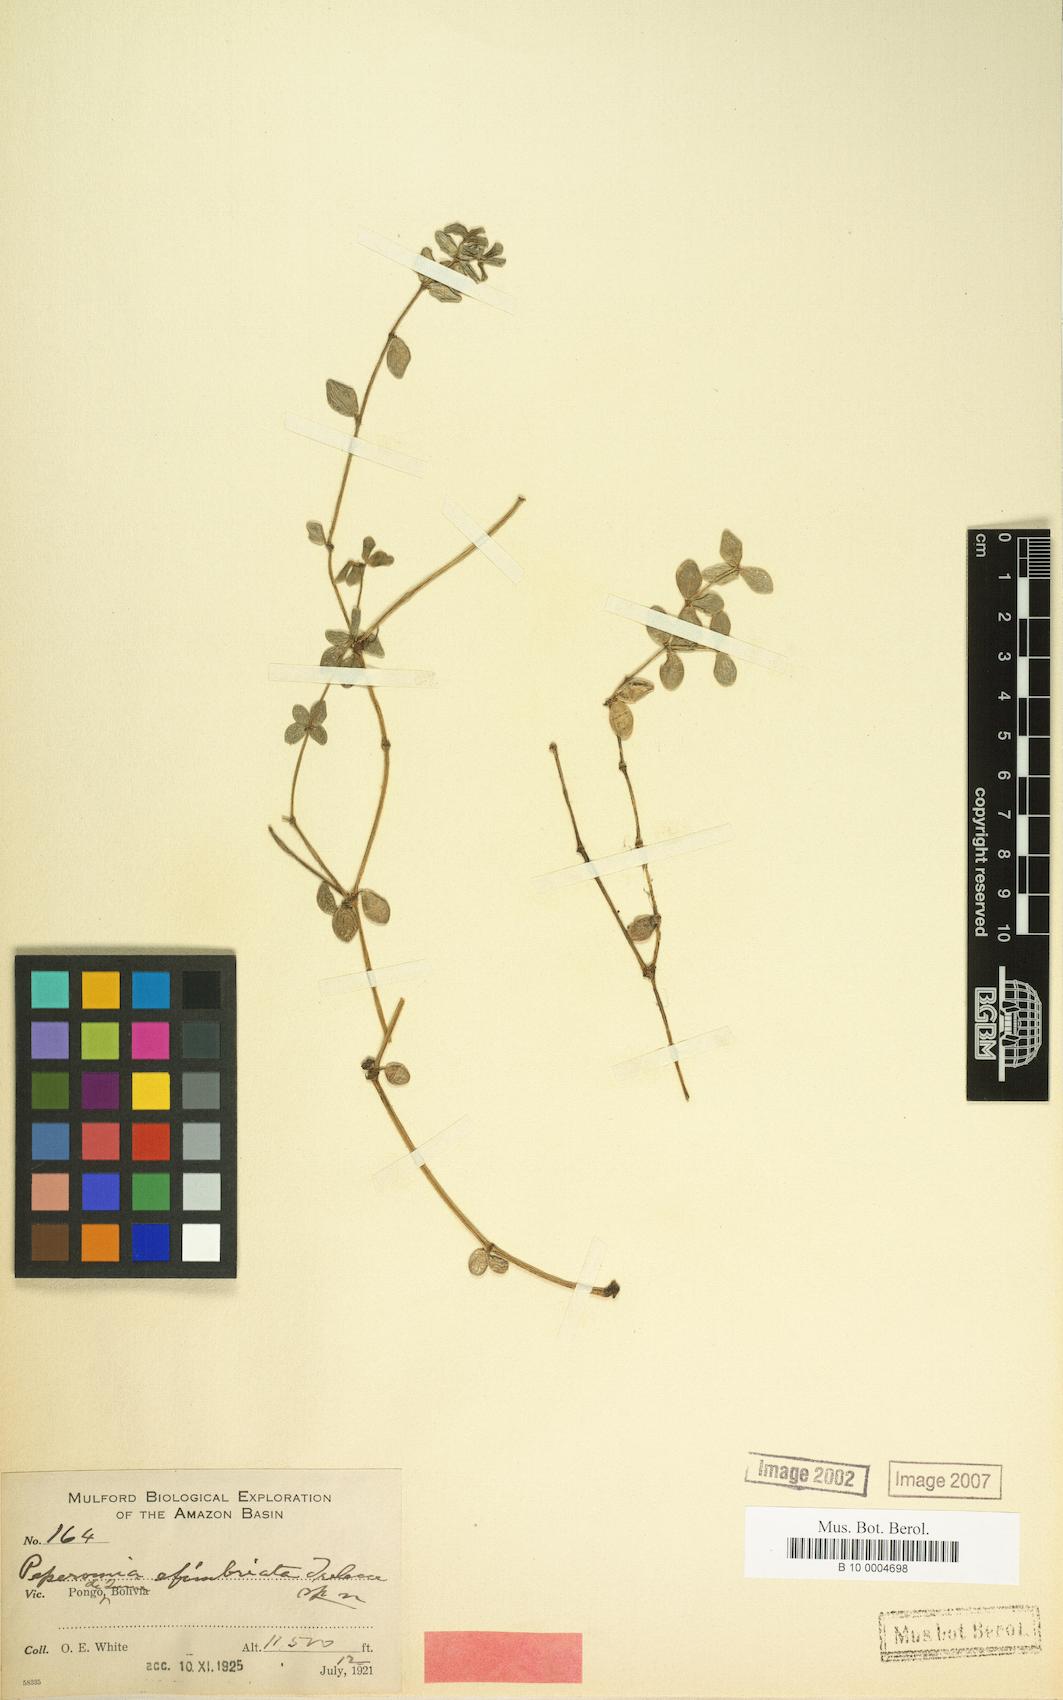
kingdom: Plantae
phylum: Tracheophyta
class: Magnoliopsida
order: Piperales
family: Piperaceae
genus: Peperomia
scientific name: Peperomia efimbriata
